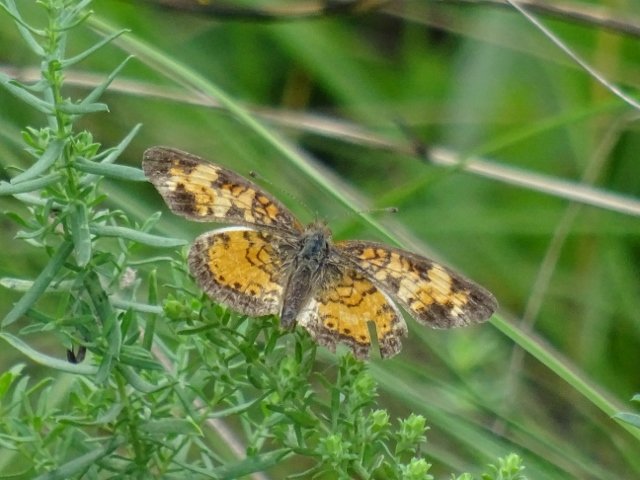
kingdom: Animalia
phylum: Arthropoda
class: Insecta
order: Lepidoptera
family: Nymphalidae
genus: Phyciodes
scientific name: Phyciodes tharos
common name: Pearl Crescent
